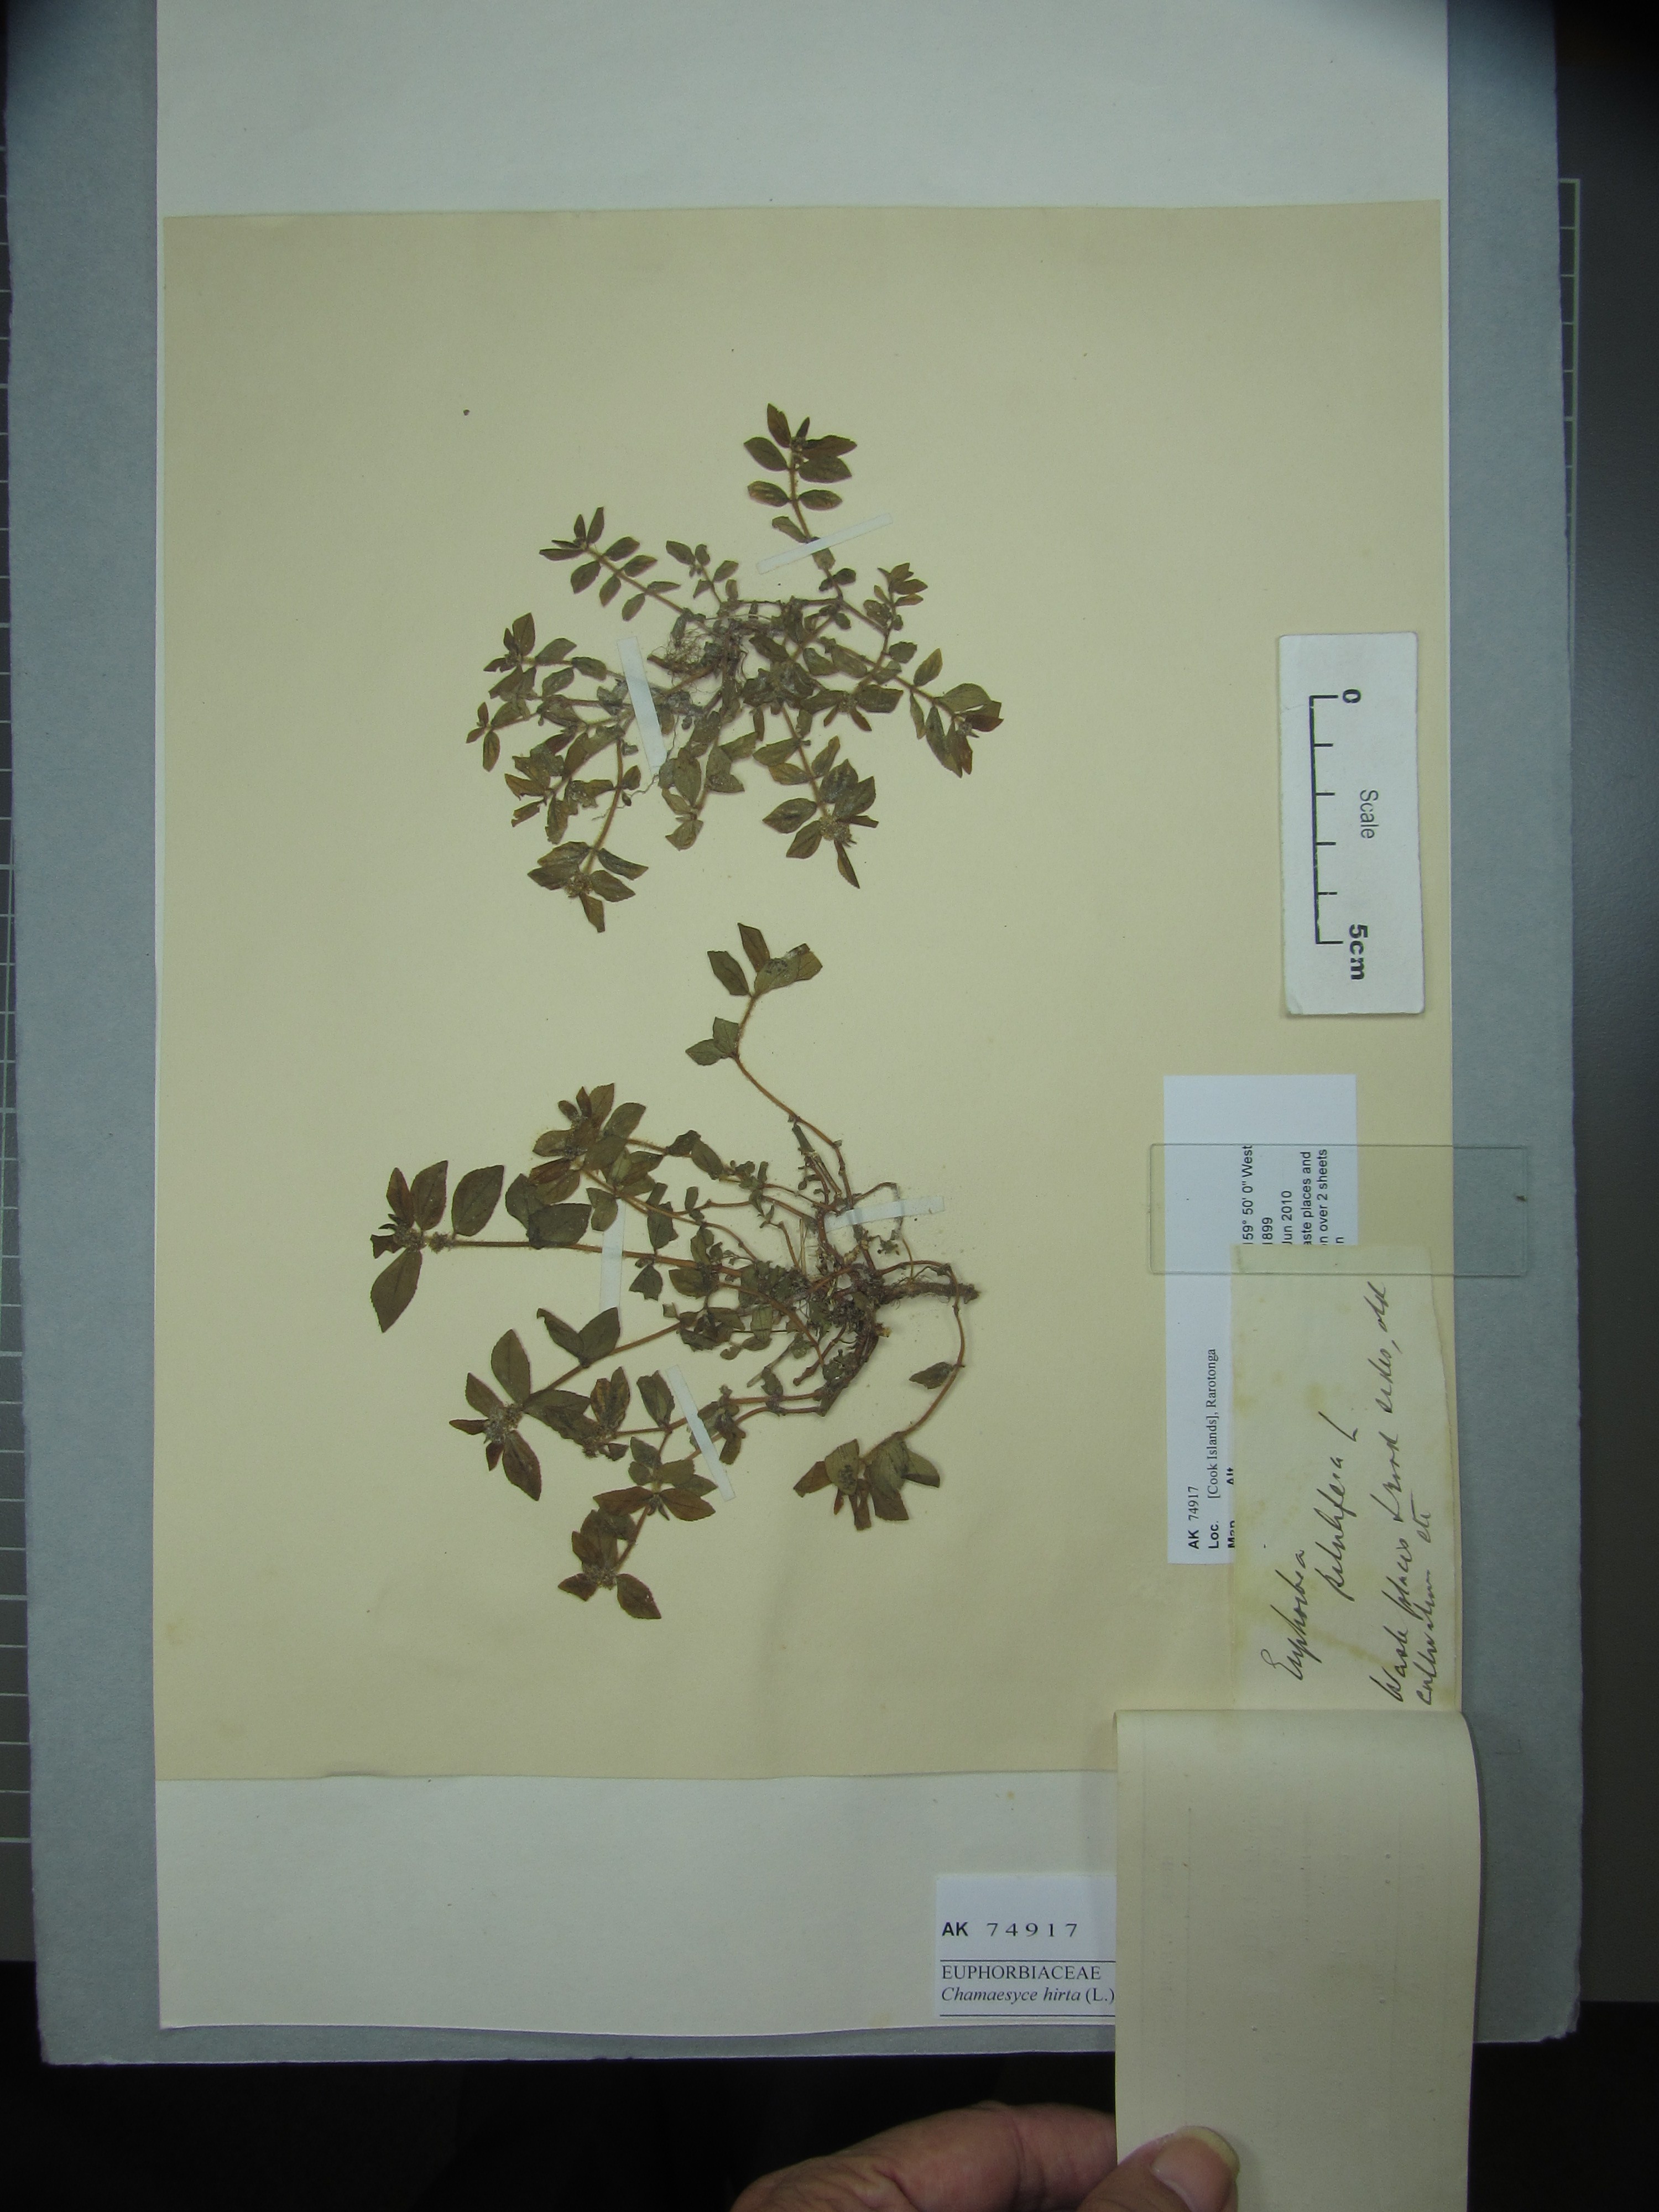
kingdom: Plantae
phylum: Tracheophyta
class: Magnoliopsida
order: Malpighiales
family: Euphorbiaceae
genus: Euphorbia
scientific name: Euphorbia hirta
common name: Pillpod sandmat
